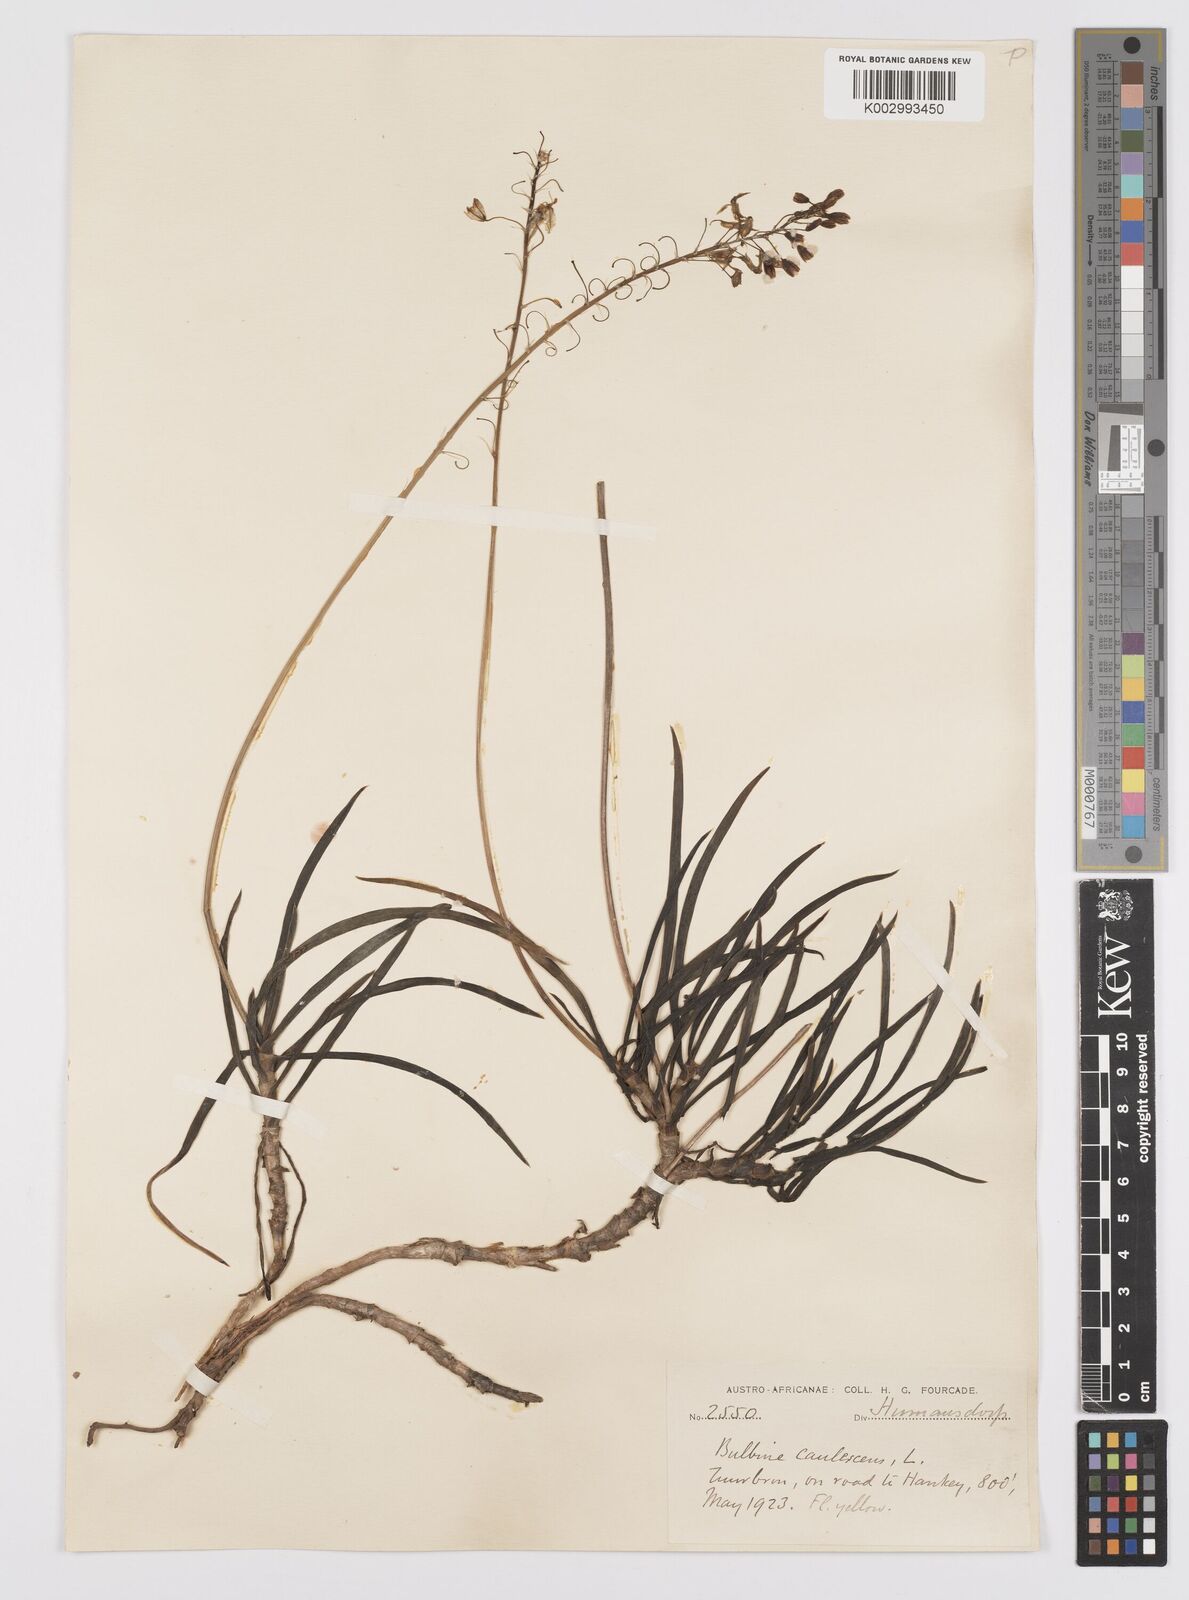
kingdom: Plantae
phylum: Tracheophyta
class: Liliopsida
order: Asparagales
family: Asphodelaceae
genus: Bulbine
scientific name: Bulbine frutescens
